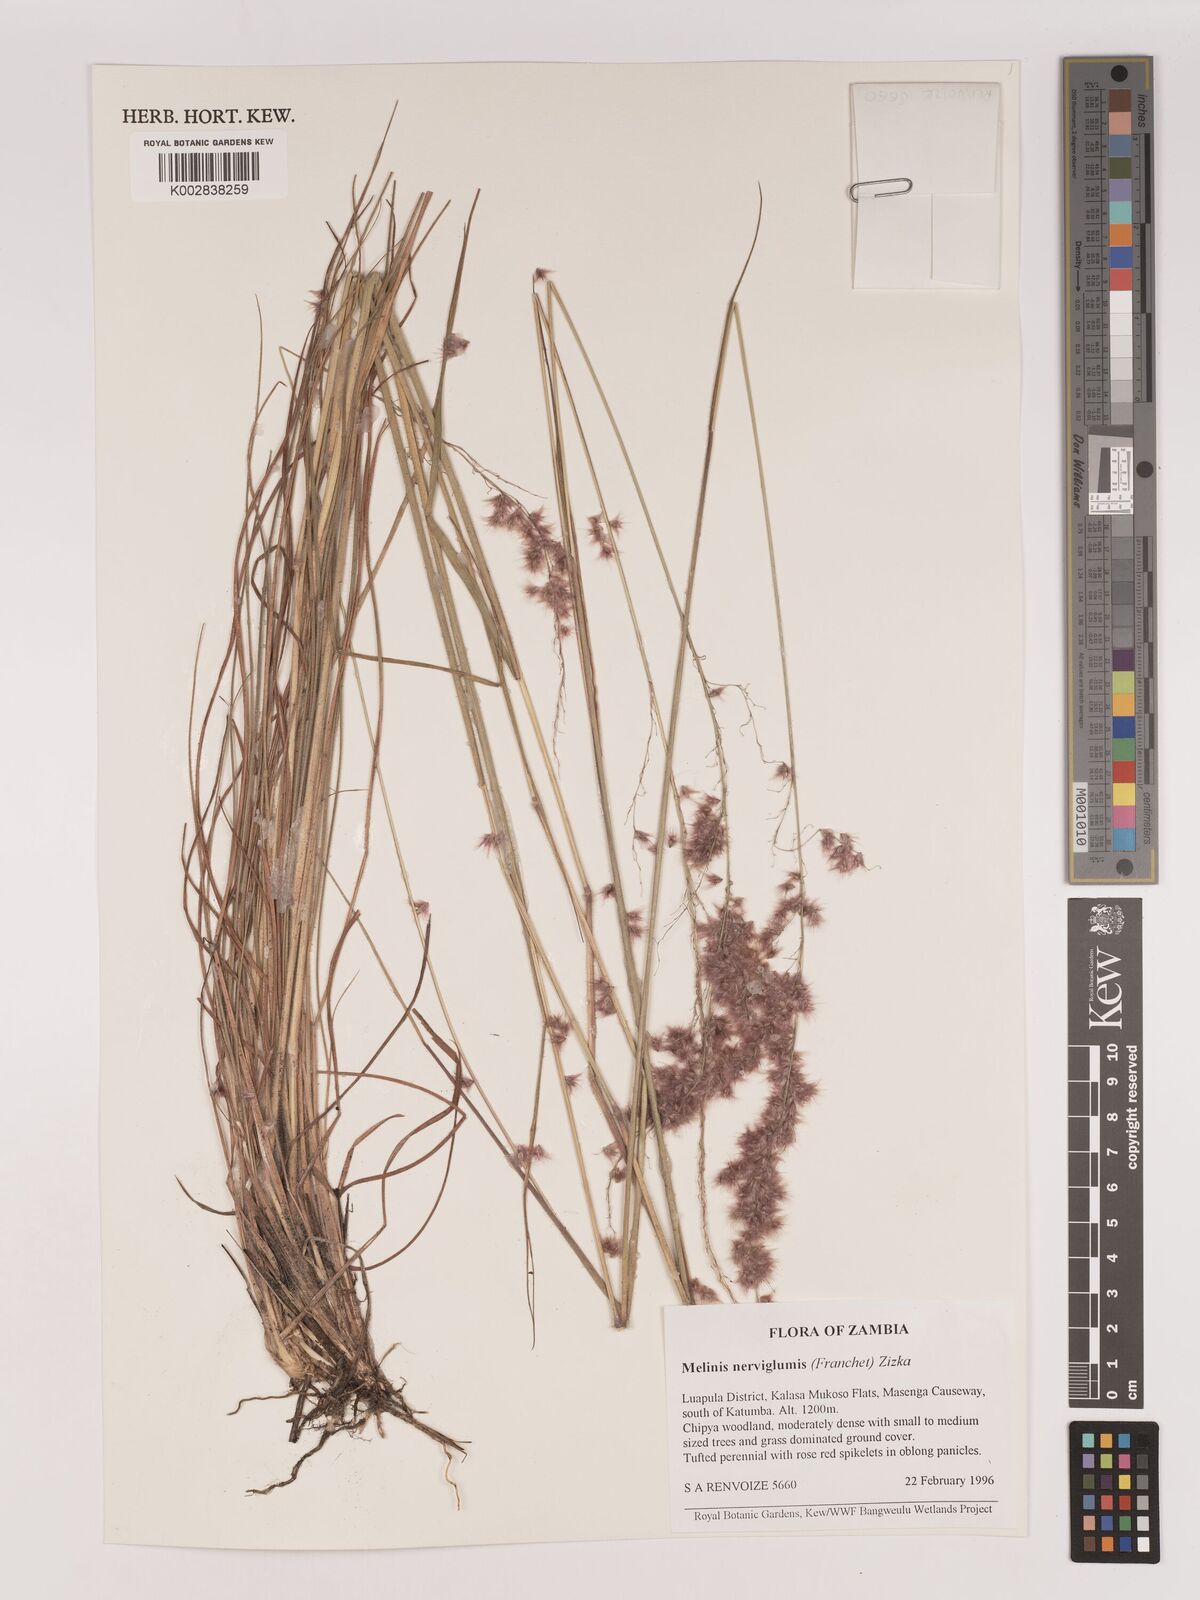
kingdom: Plantae
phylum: Tracheophyta
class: Liliopsida
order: Poales
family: Poaceae
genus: Melinis
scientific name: Melinis repens
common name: Rose natal grass
